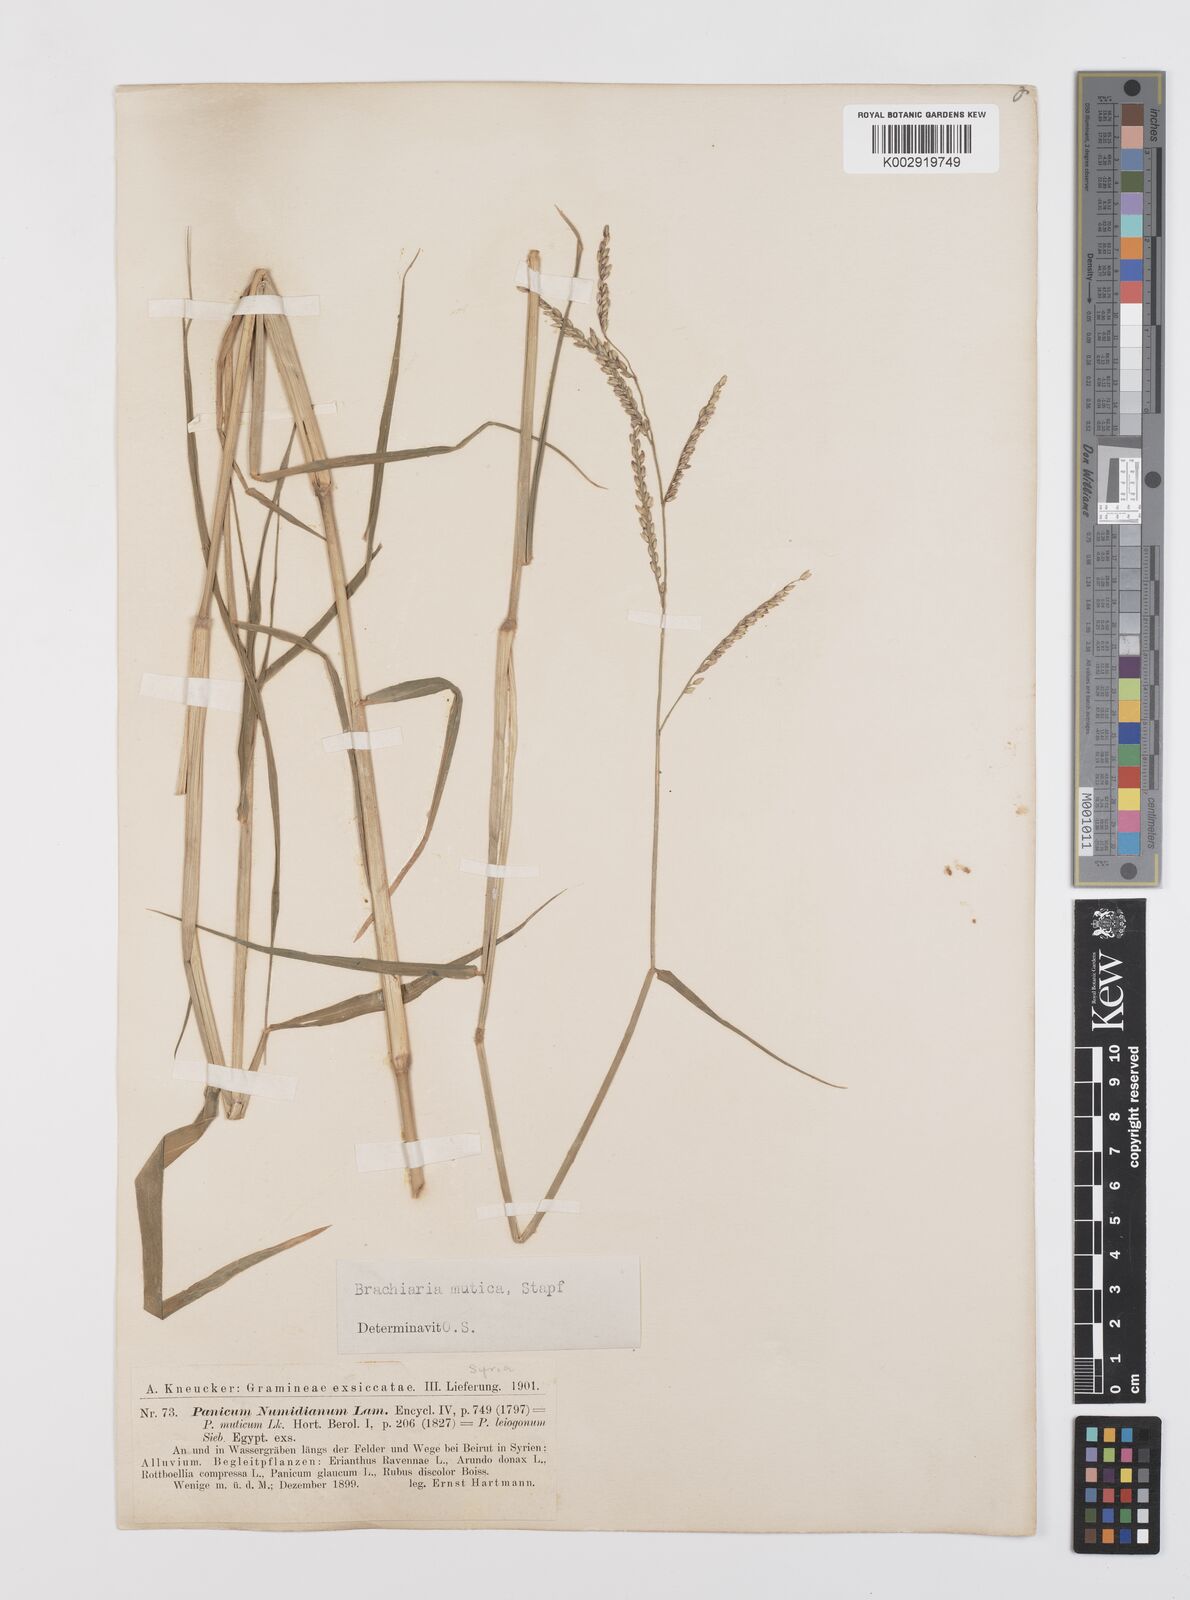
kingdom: Plantae
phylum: Tracheophyta
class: Liliopsida
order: Poales
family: Poaceae
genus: Urochloa
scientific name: Urochloa mutica
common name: Para grass
